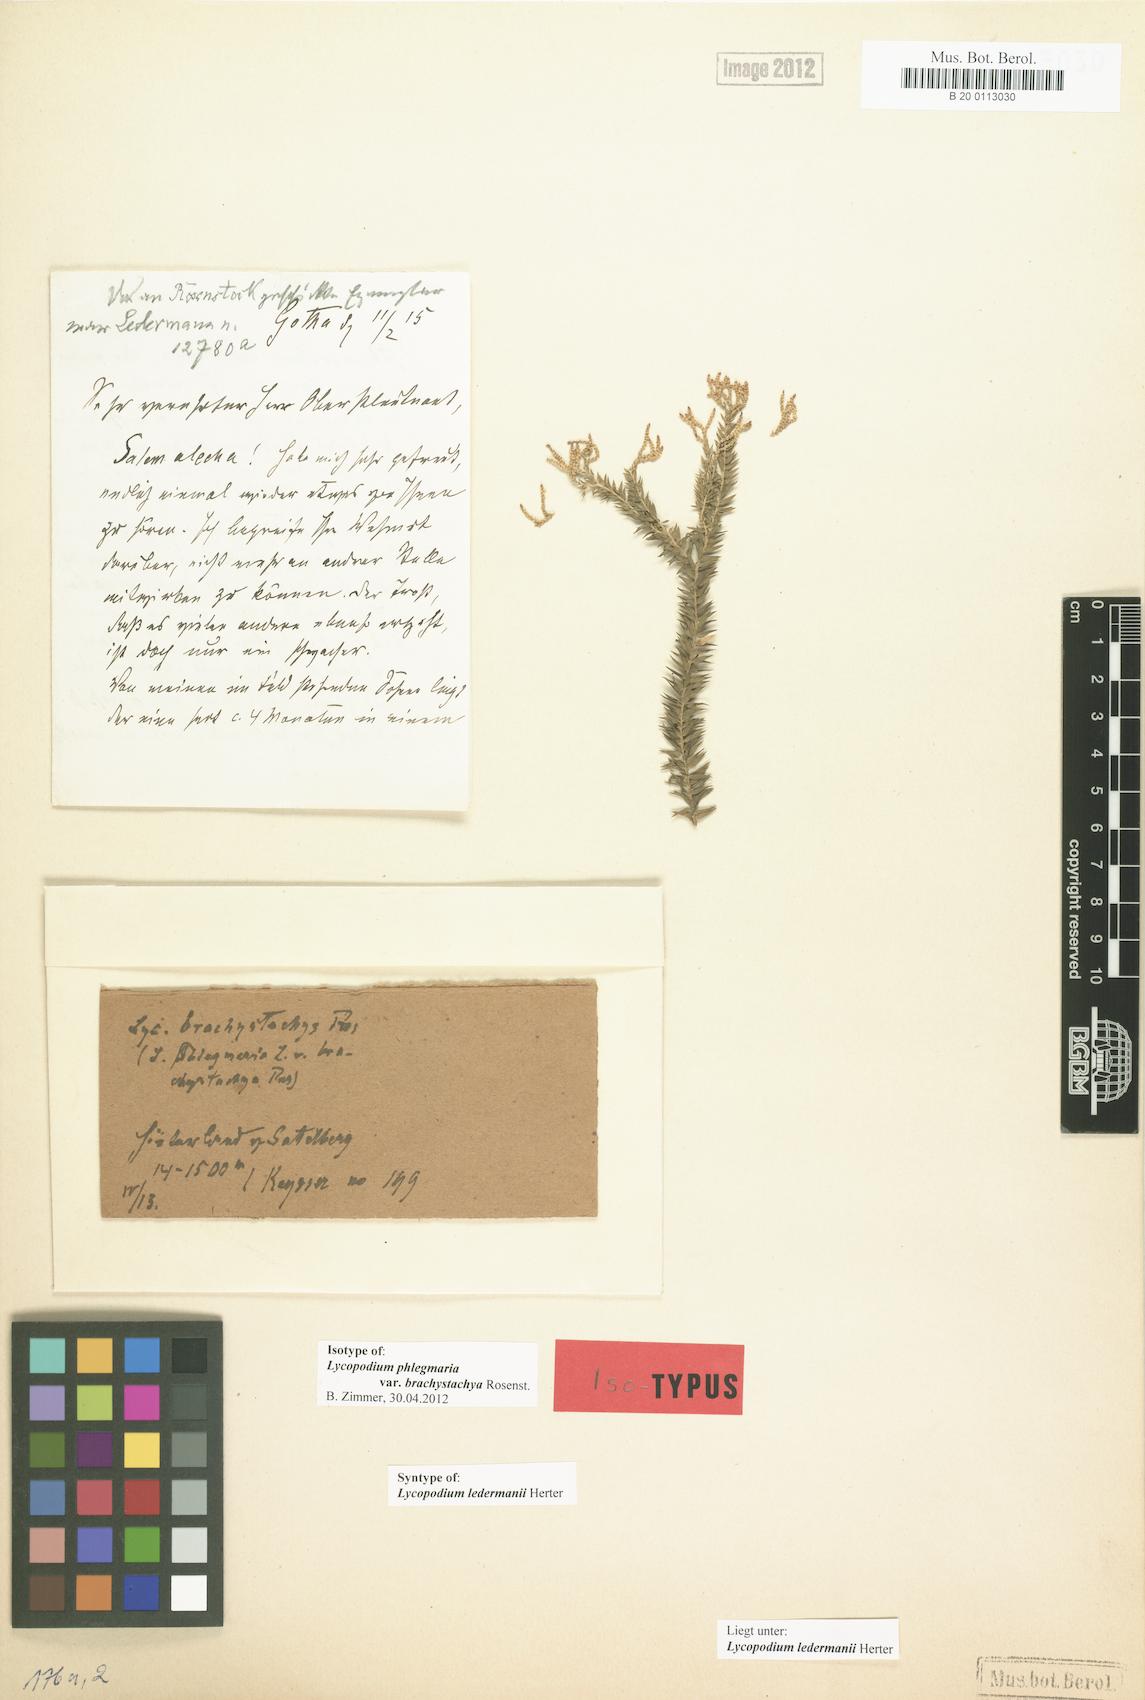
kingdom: Plantae
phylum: Tracheophyta
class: Lycopodiopsida
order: Lycopodiales
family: Lycopodiaceae
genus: Phlegmariurus
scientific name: Phlegmariurus ledermannii
